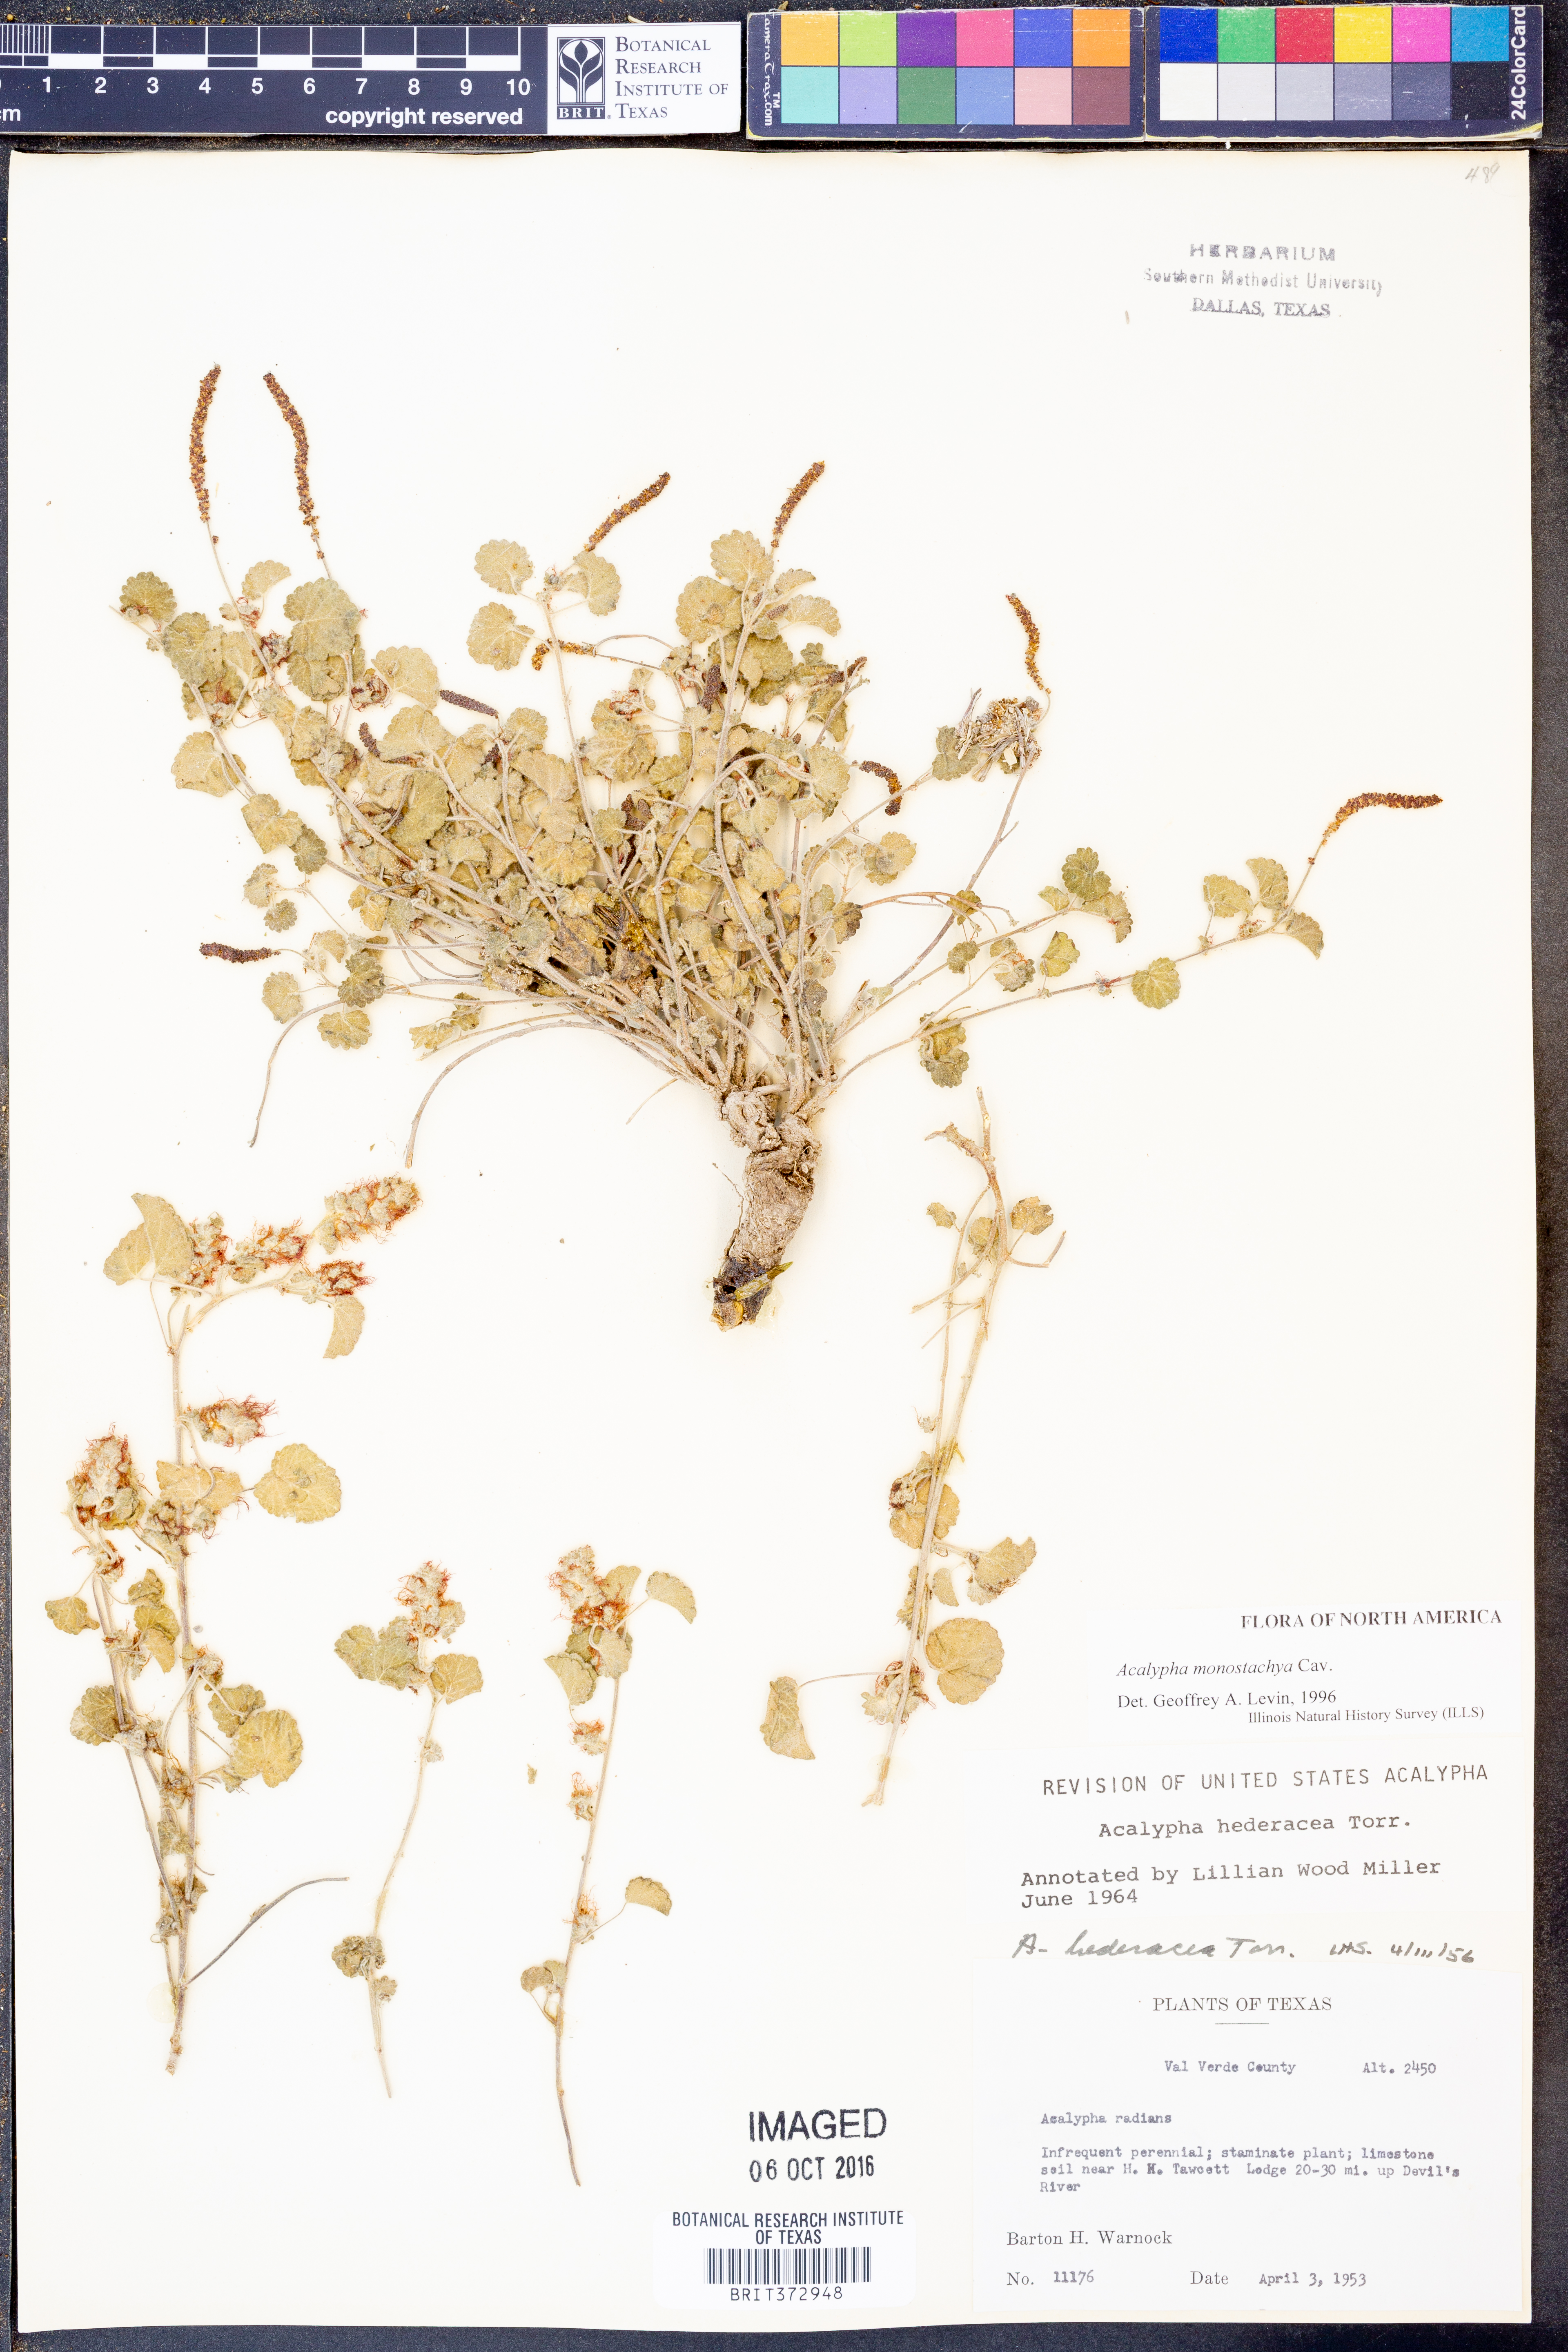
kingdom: Plantae
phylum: Tracheophyta
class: Magnoliopsida
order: Malpighiales
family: Euphorbiaceae
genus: Acalypha
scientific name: Acalypha monostachya
